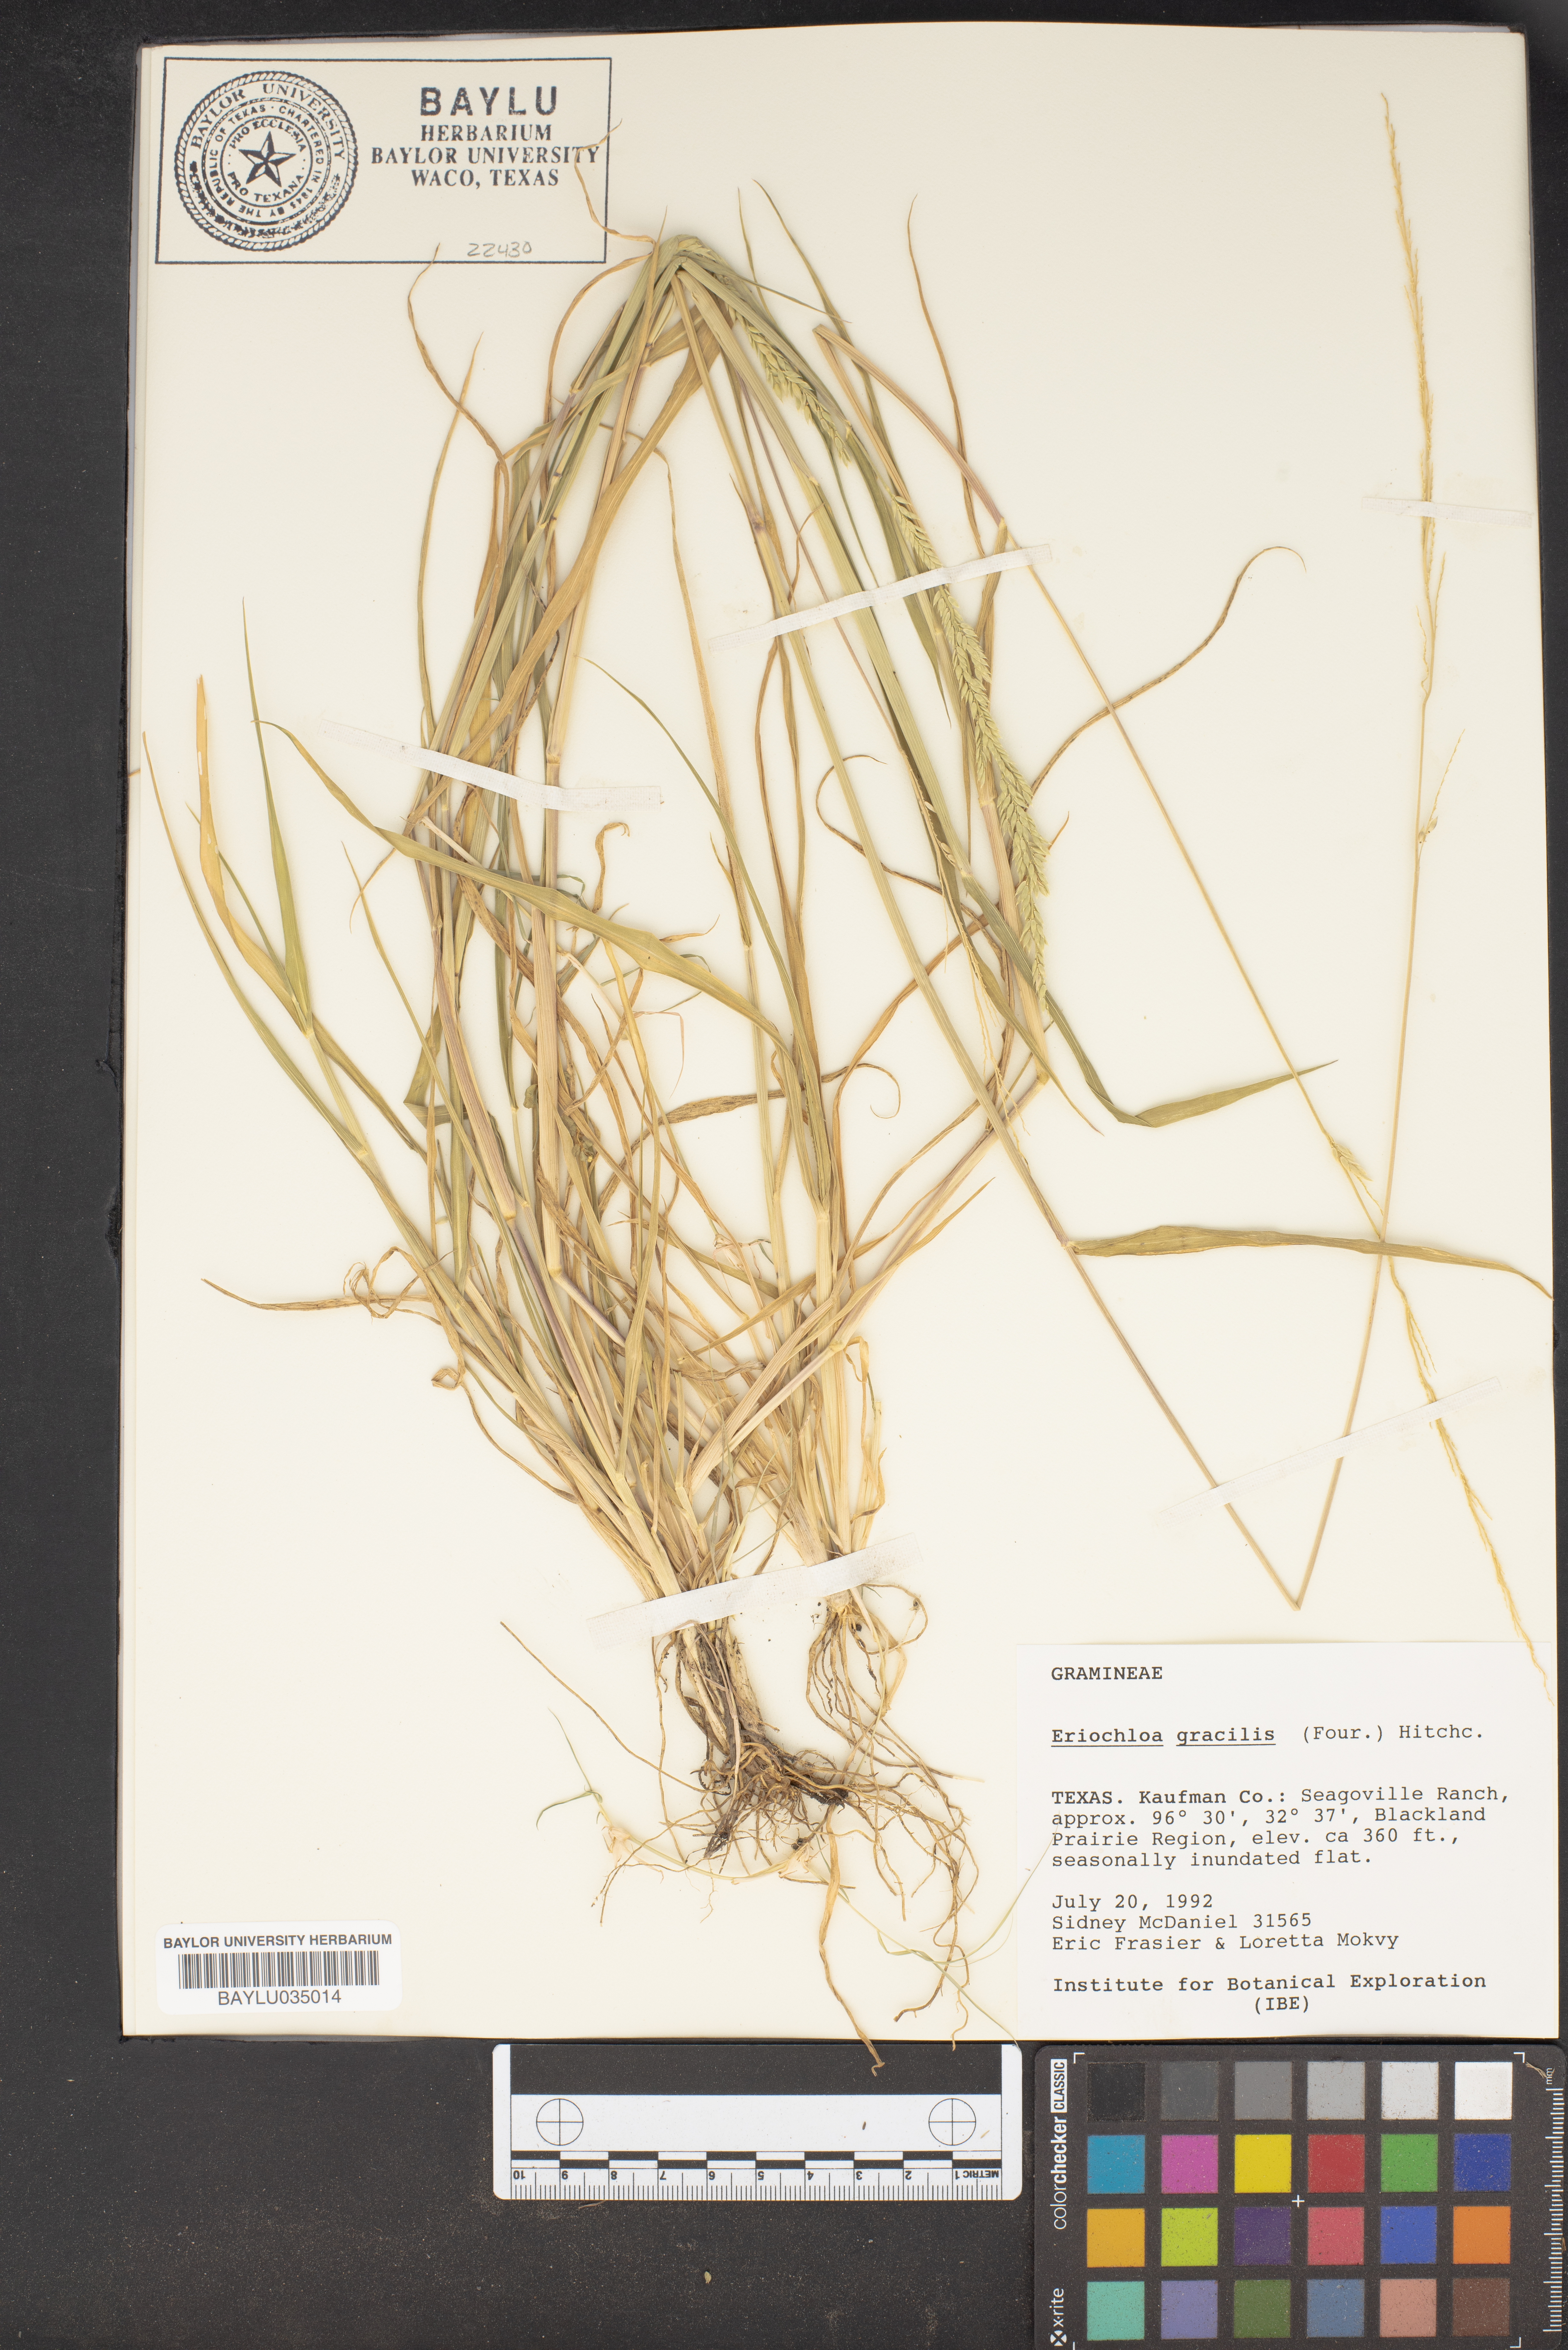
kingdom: Plantae
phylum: Tracheophyta
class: Liliopsida
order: Poales
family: Poaceae
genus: Eriochloa
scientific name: Eriochloa acuminata
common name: Southwestern cup grass
